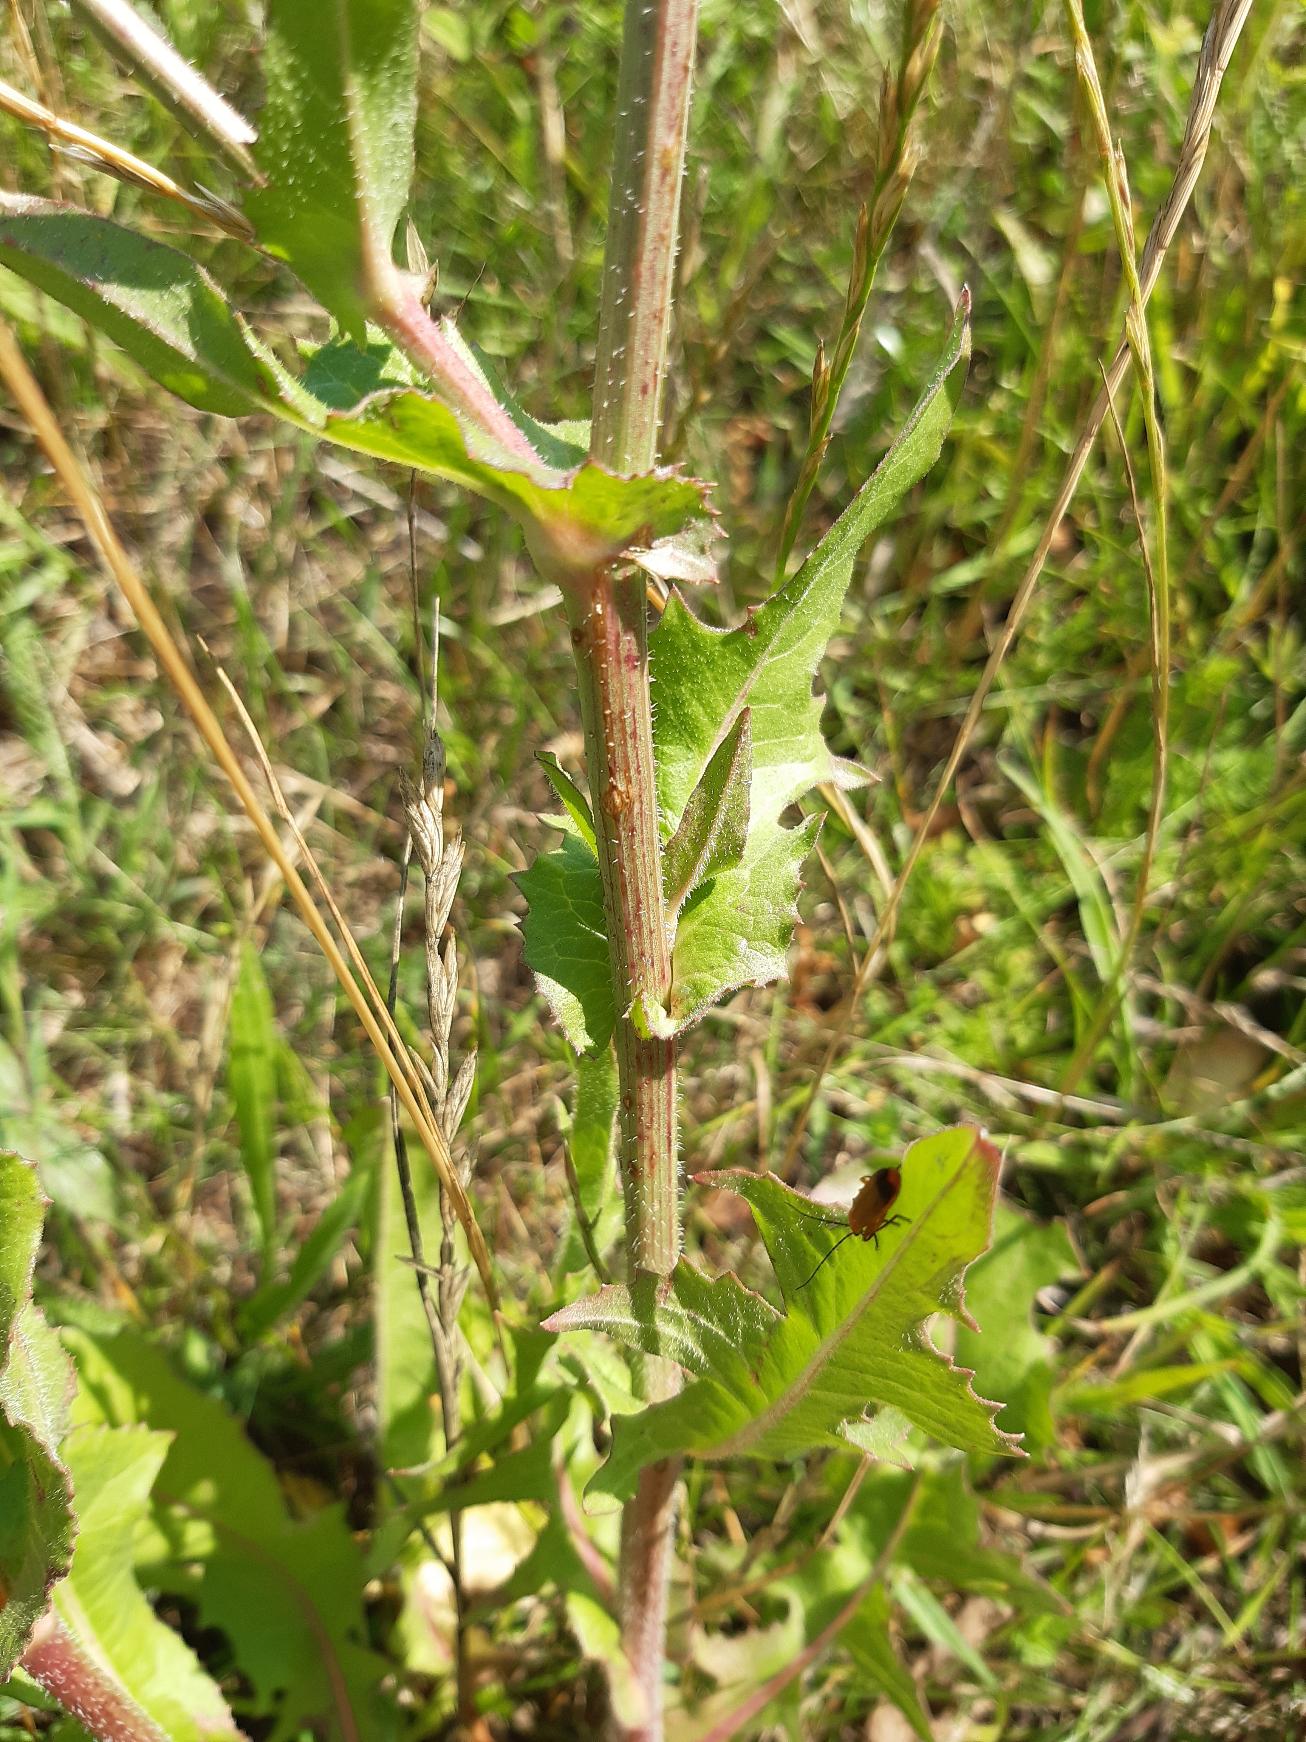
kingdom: Plantae
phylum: Tracheophyta
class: Magnoliopsida
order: Asterales
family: Asteraceae
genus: Cichorium
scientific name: Cichorium intybus
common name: Cikorie
